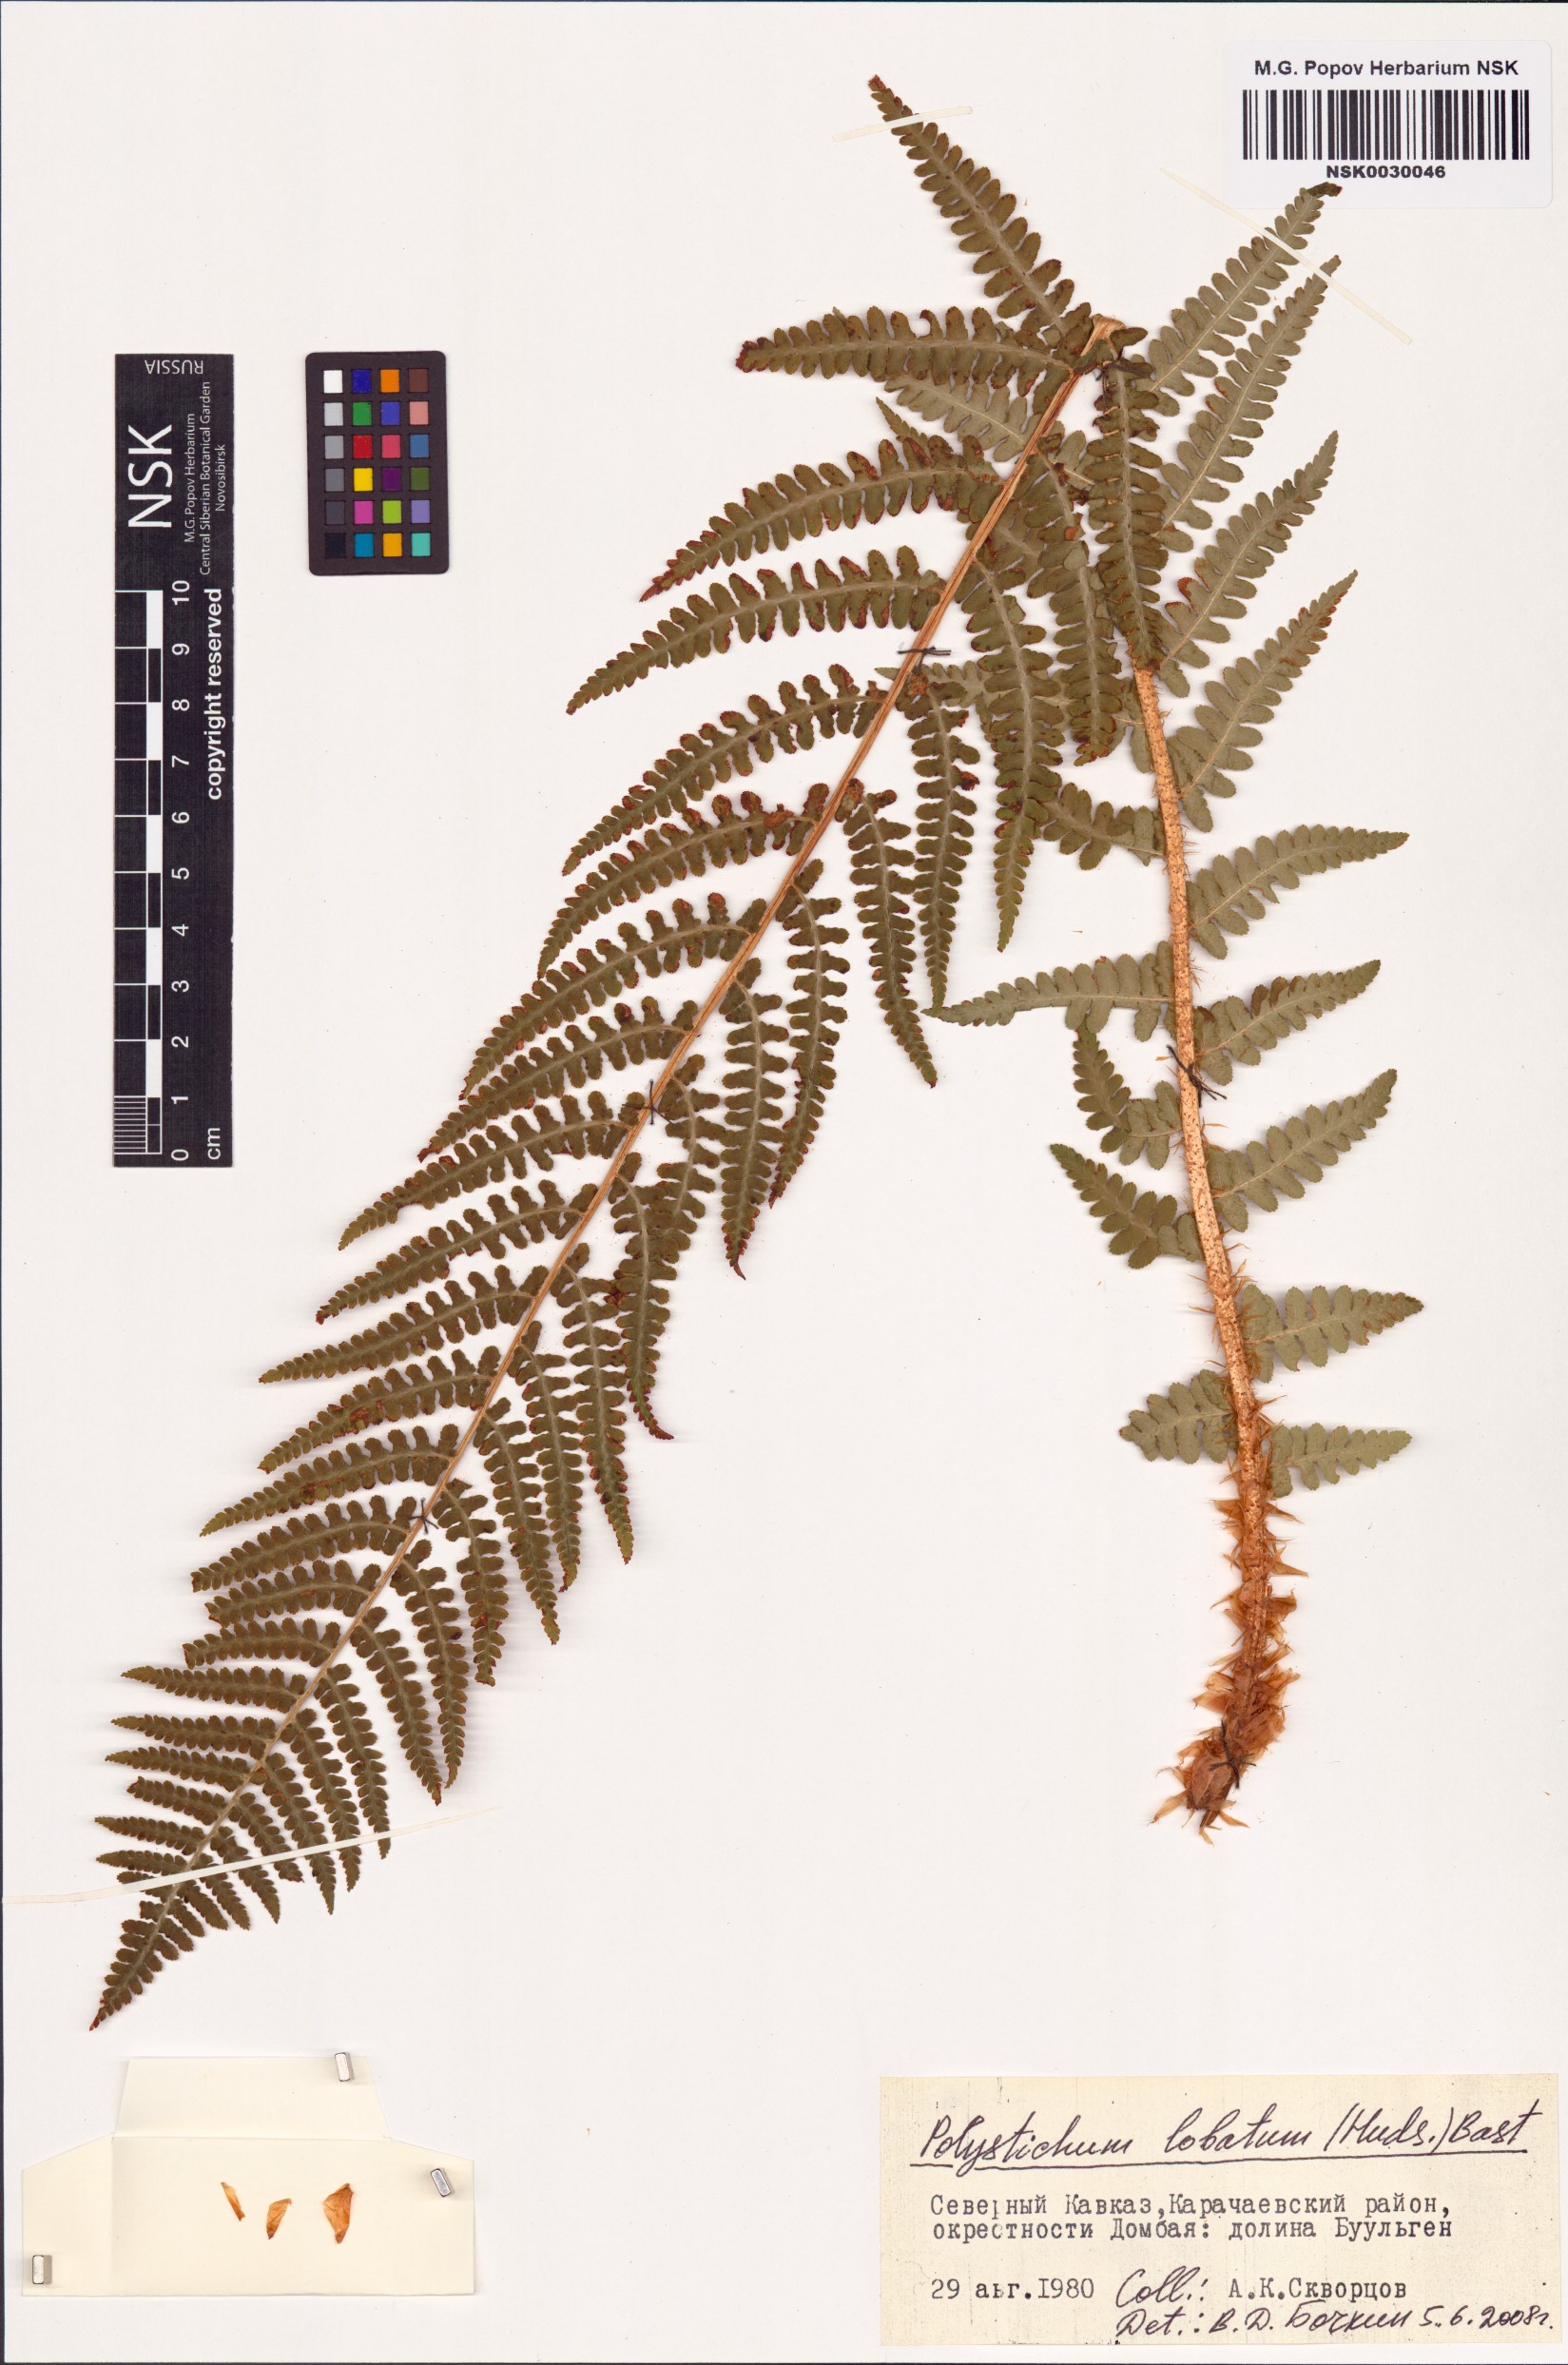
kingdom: Plantae
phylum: Tracheophyta
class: Polypodiopsida
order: Polypodiales
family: Dryopteridaceae
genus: Polystichum
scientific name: Polystichum aculeatum
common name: Hard shield-fern
